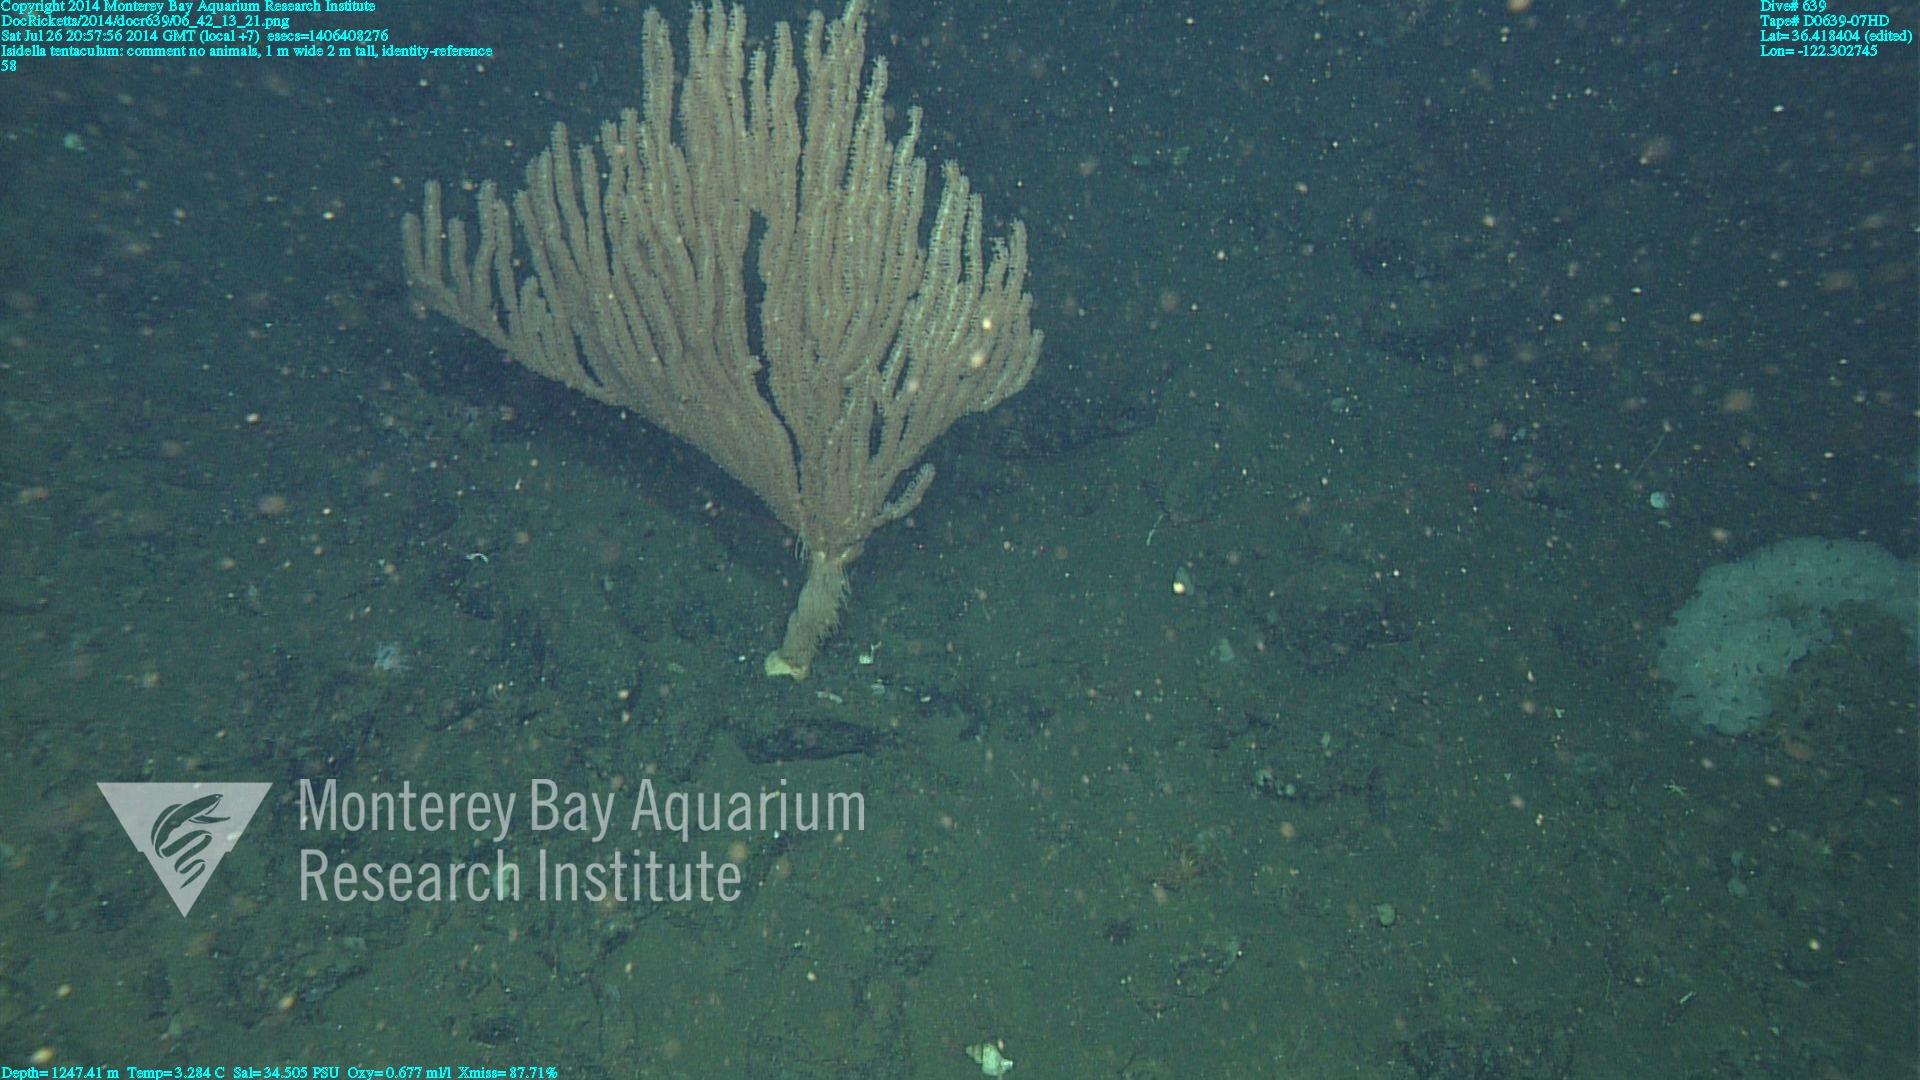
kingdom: Animalia
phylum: Cnidaria
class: Anthozoa
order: Scleralcyonacea
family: Keratoisididae
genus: Isidella
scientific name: Isidella tentaculum
